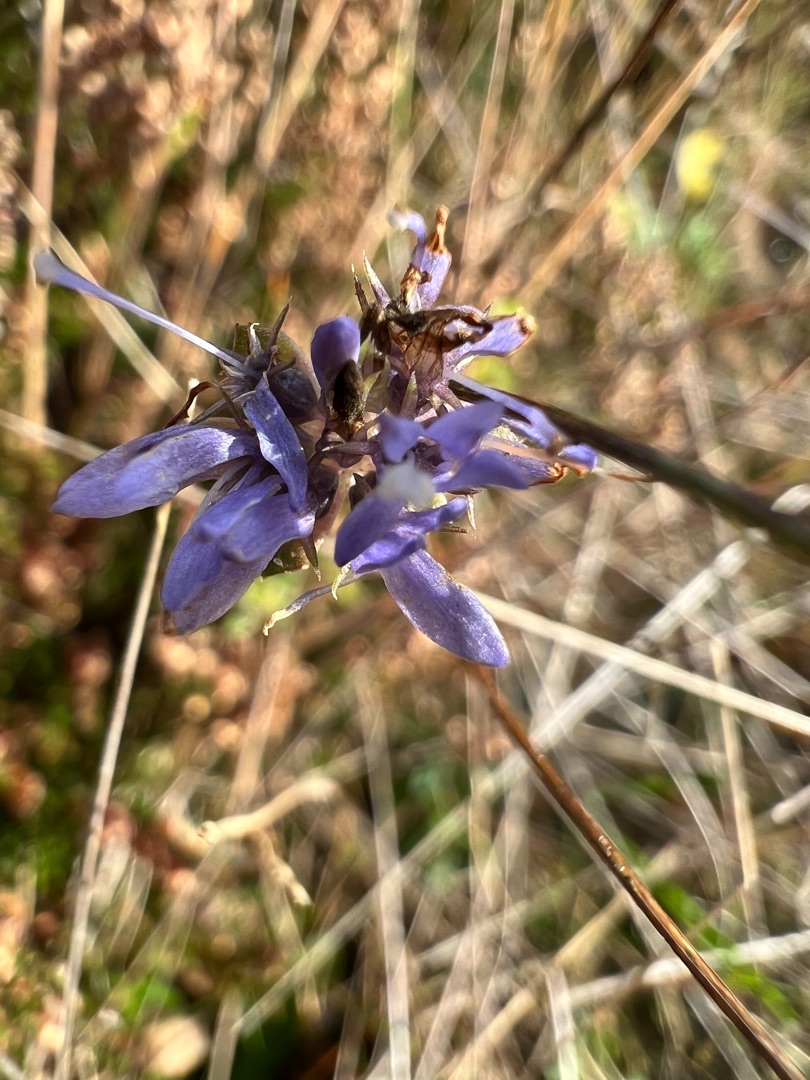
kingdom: Plantae
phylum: Tracheophyta
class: Magnoliopsida
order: Asterales
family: Campanulaceae
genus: Jasione
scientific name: Jasione montana
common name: Blåmunke
